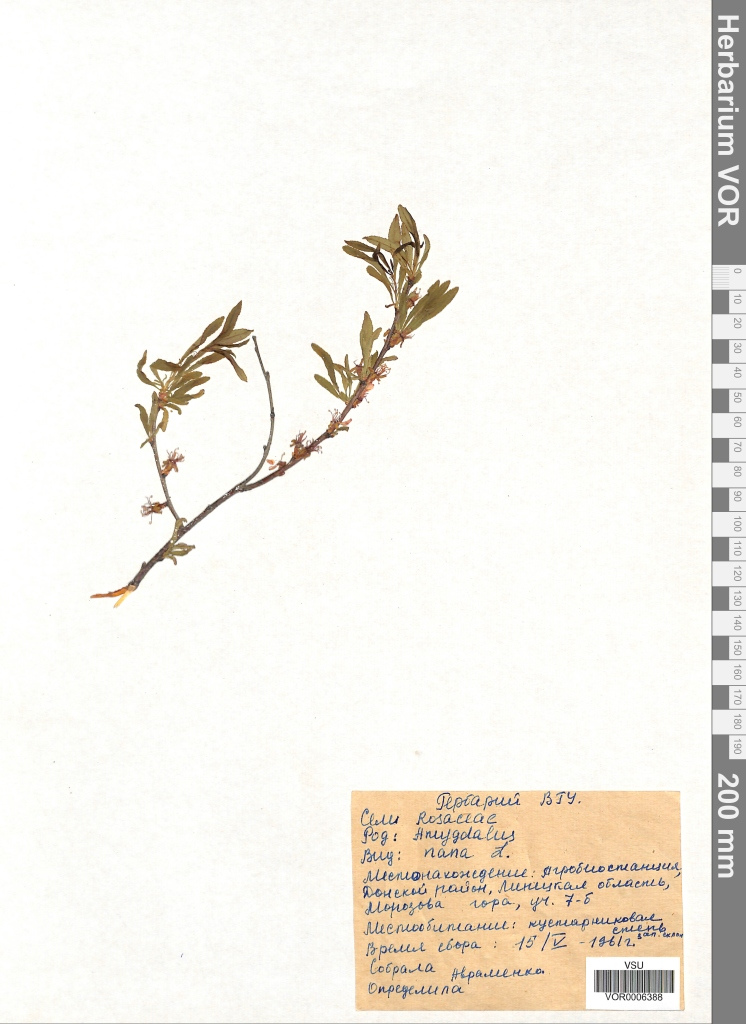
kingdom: Plantae
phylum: Tracheophyta
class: Magnoliopsida
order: Rosales
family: Rosaceae
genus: Prunus
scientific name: Prunus tenella
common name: Dwarf russian almond
